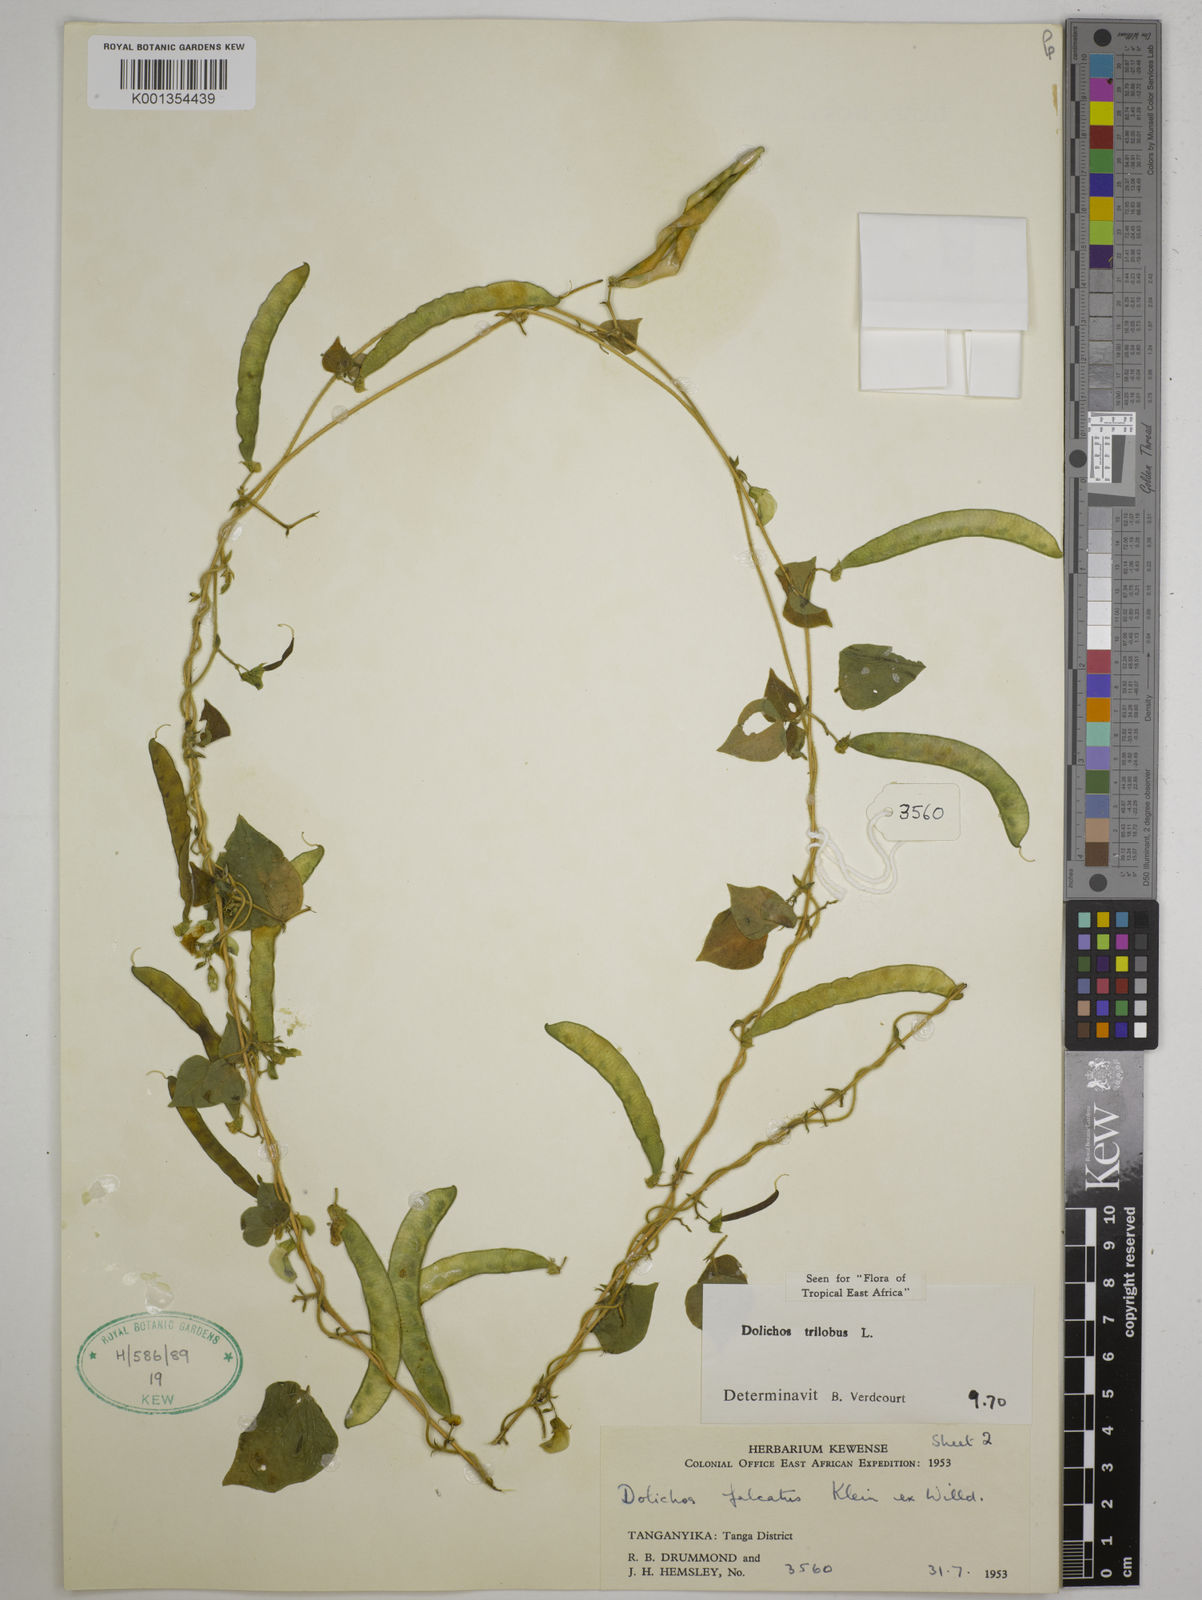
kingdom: Plantae
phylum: Tracheophyta
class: Magnoliopsida
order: Fabales
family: Fabaceae
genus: Dolichos
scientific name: Dolichos
